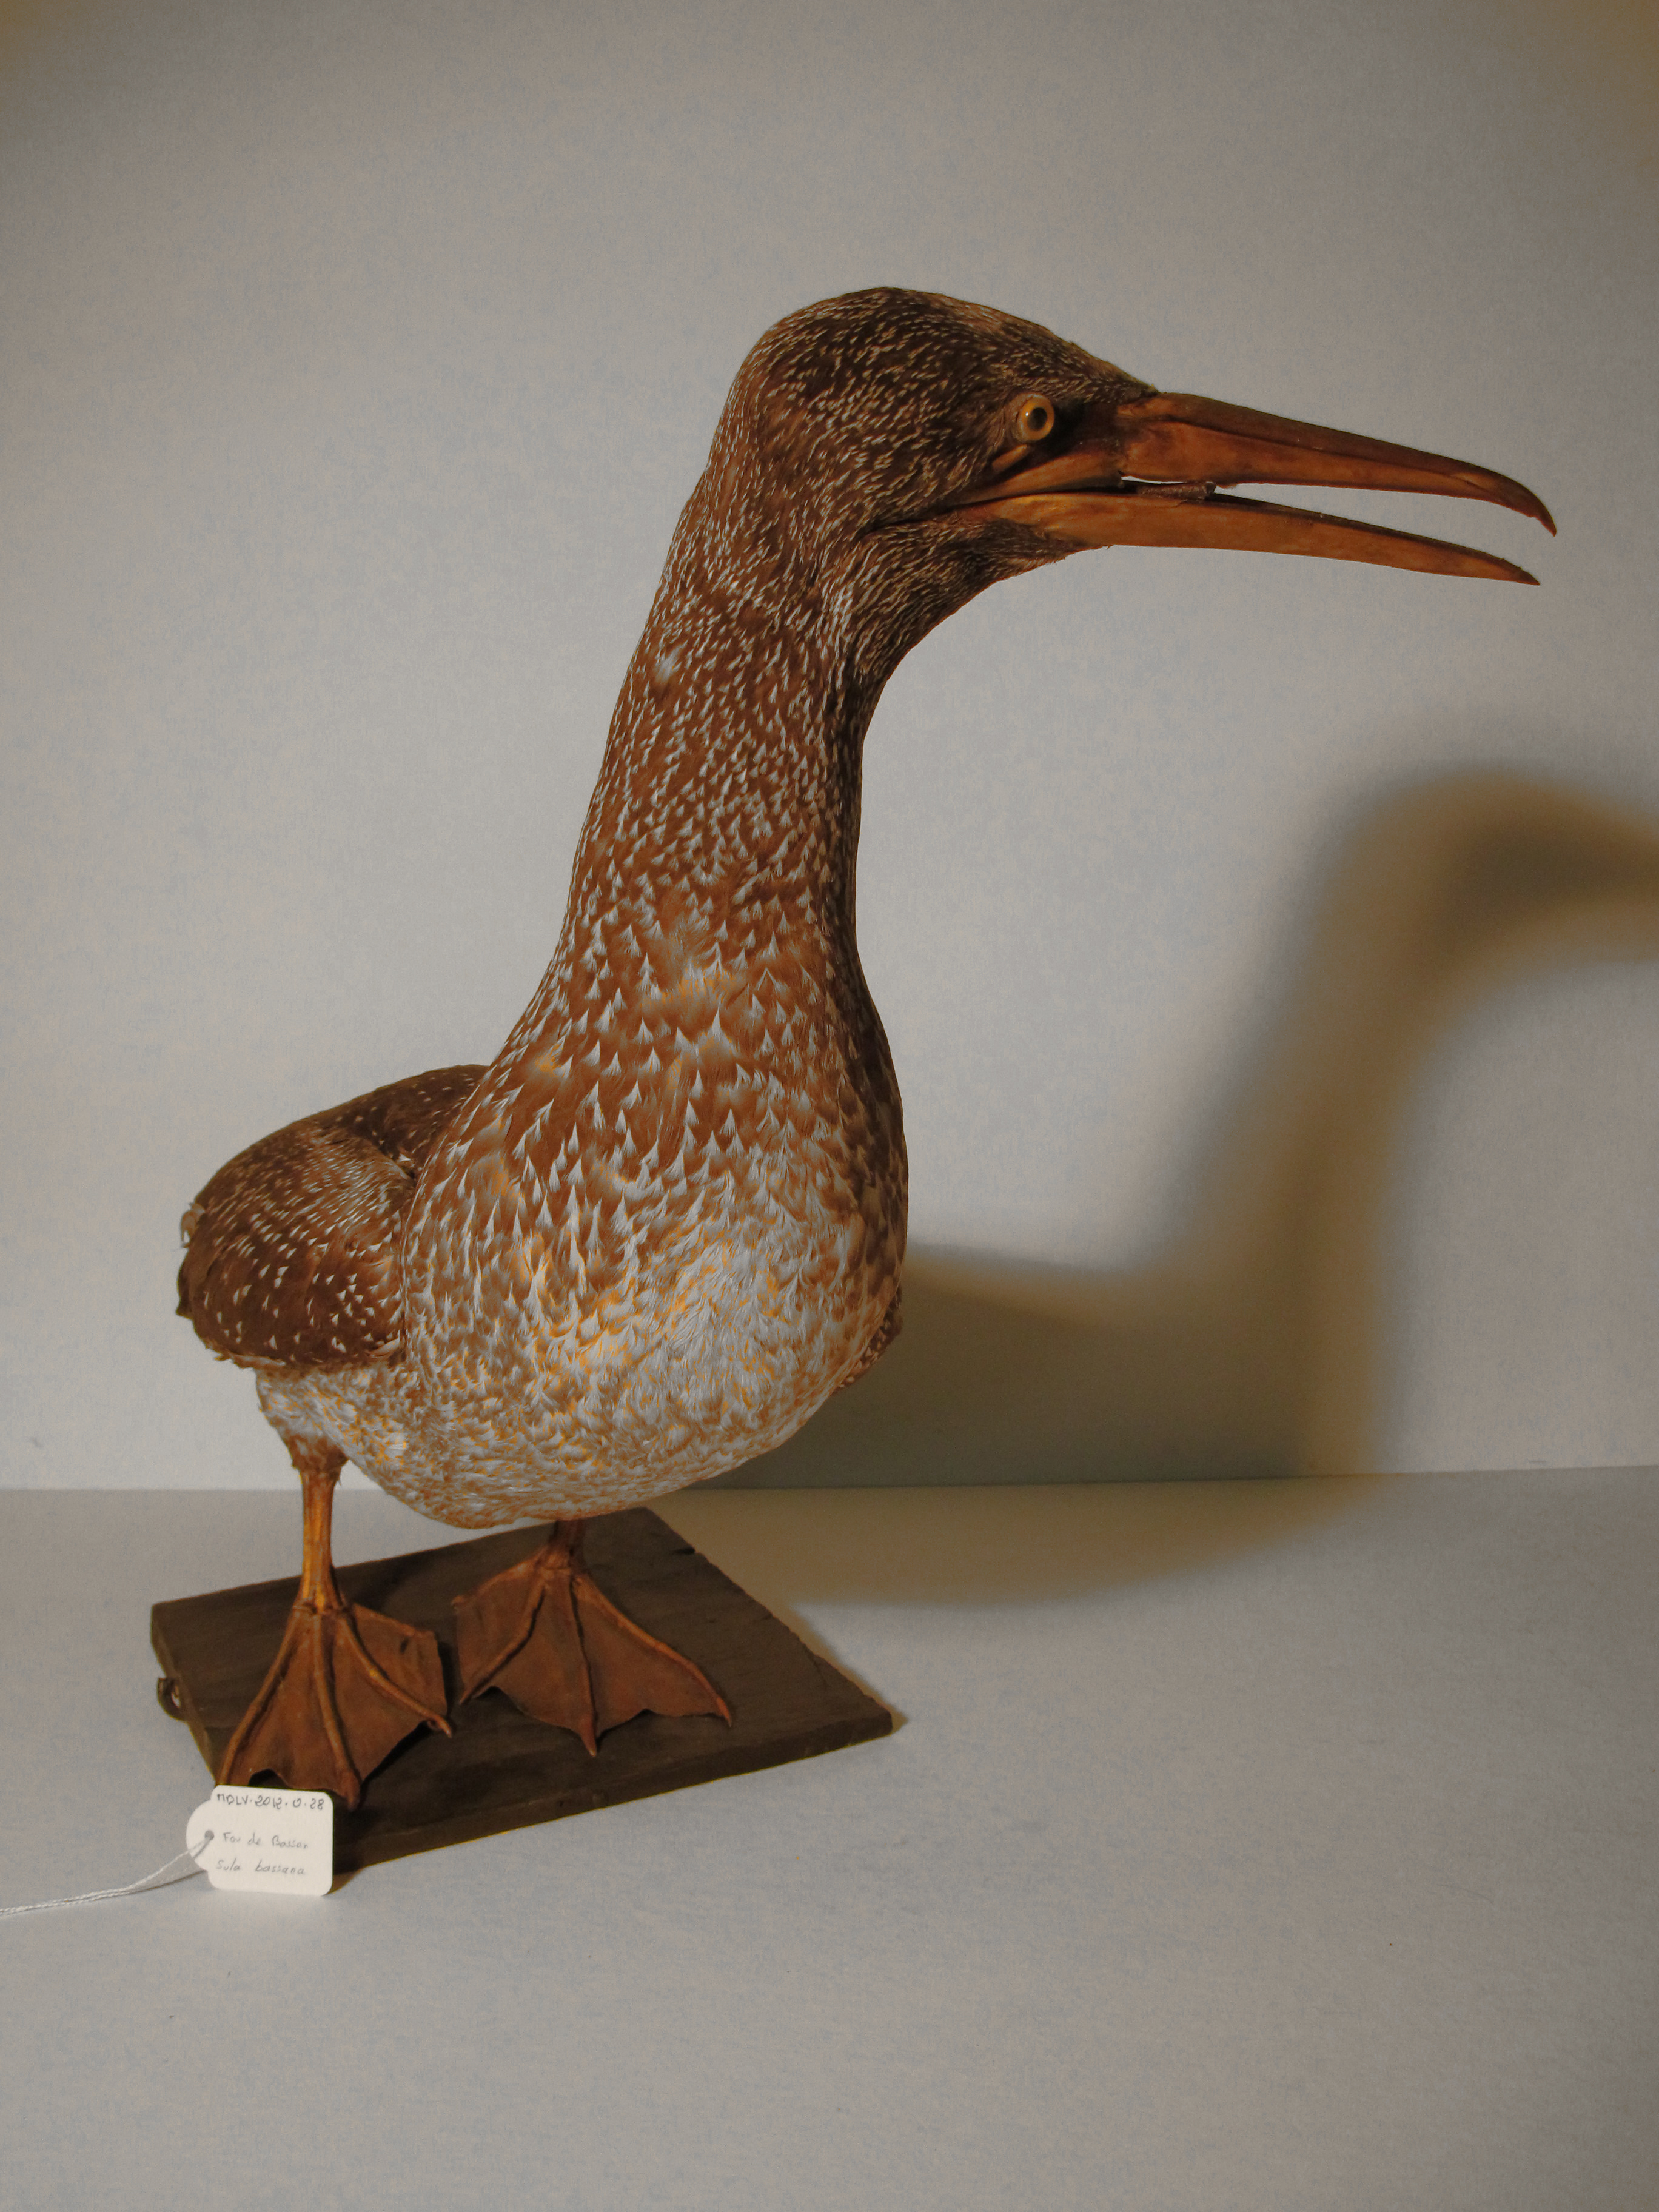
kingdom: Animalia
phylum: Chordata
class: Aves
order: Suliformes
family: Sulidae
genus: Morus
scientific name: Morus bassanus
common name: Northern Gannet
